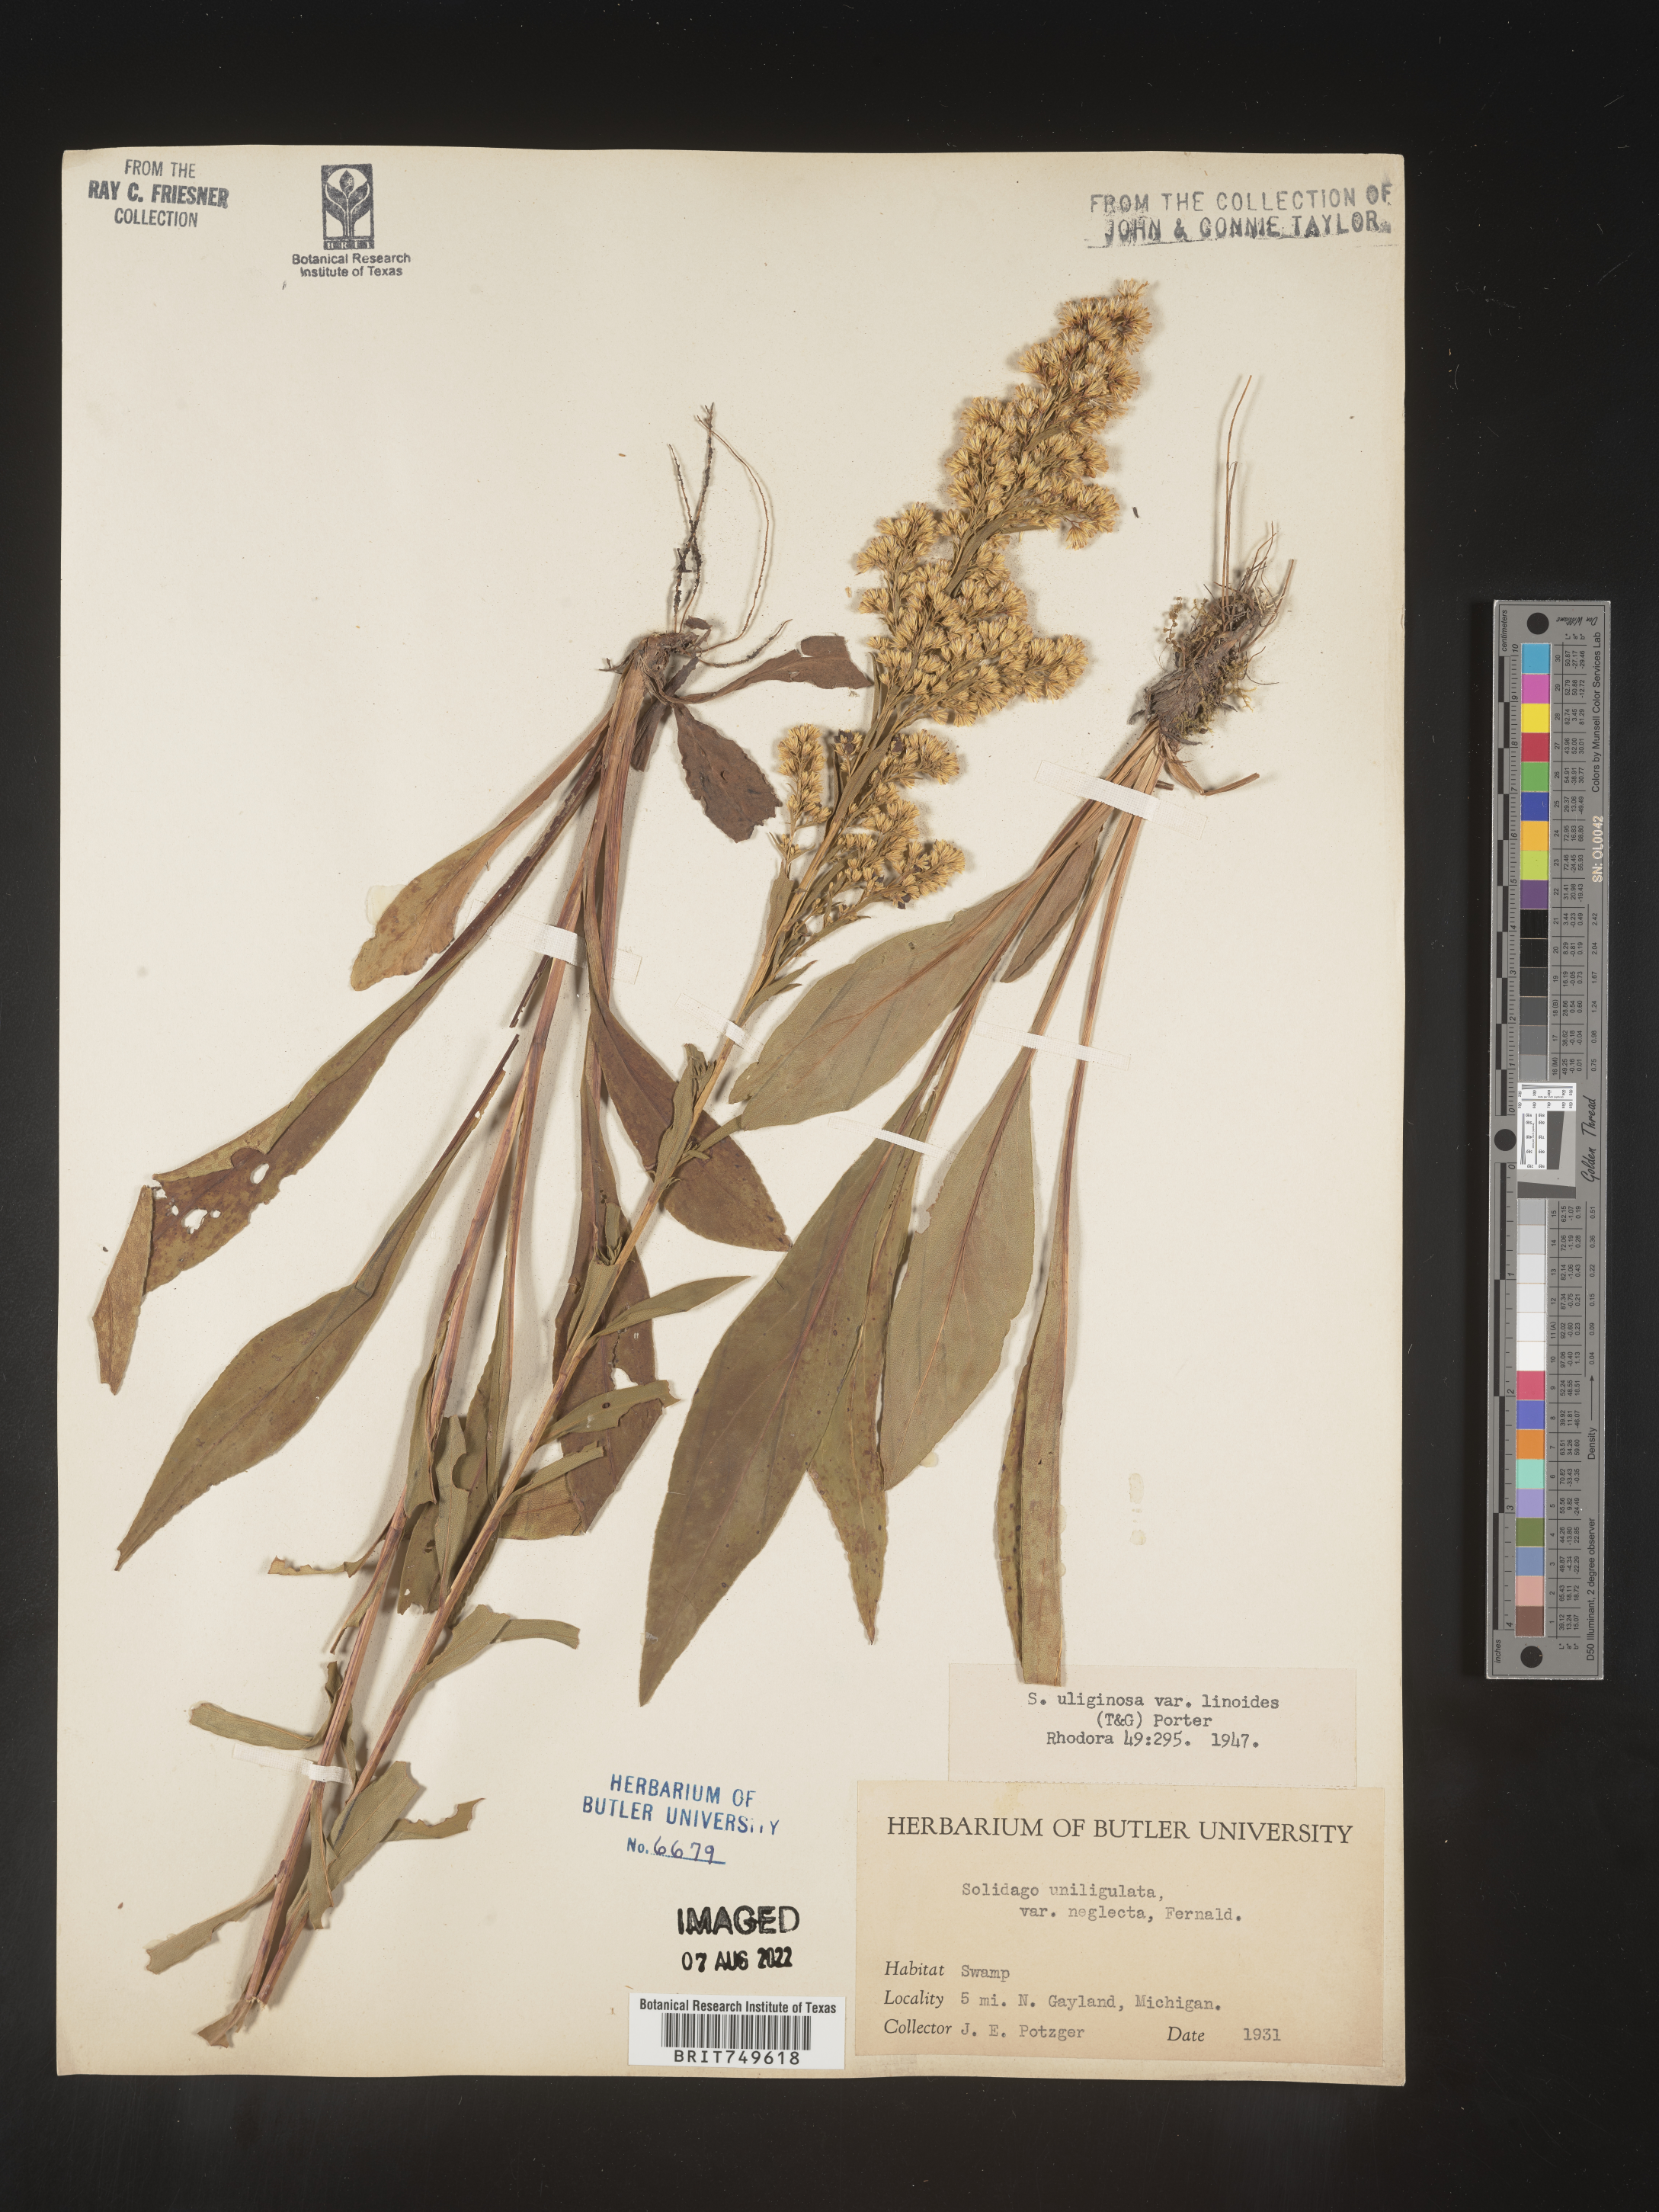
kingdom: Plantae
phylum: Tracheophyta
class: Magnoliopsida
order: Asterales
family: Asteraceae
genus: Solidago
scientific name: Solidago uliginosa
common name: Bog goldenrod
